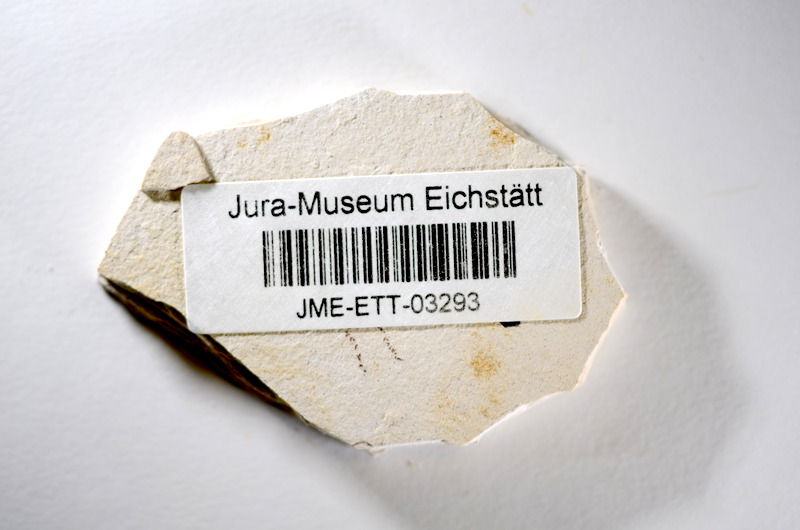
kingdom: Animalia
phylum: Chordata
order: Salmoniformes
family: Orthogonikleithridae
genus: Orthogonikleithrus
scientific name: Orthogonikleithrus hoelli
